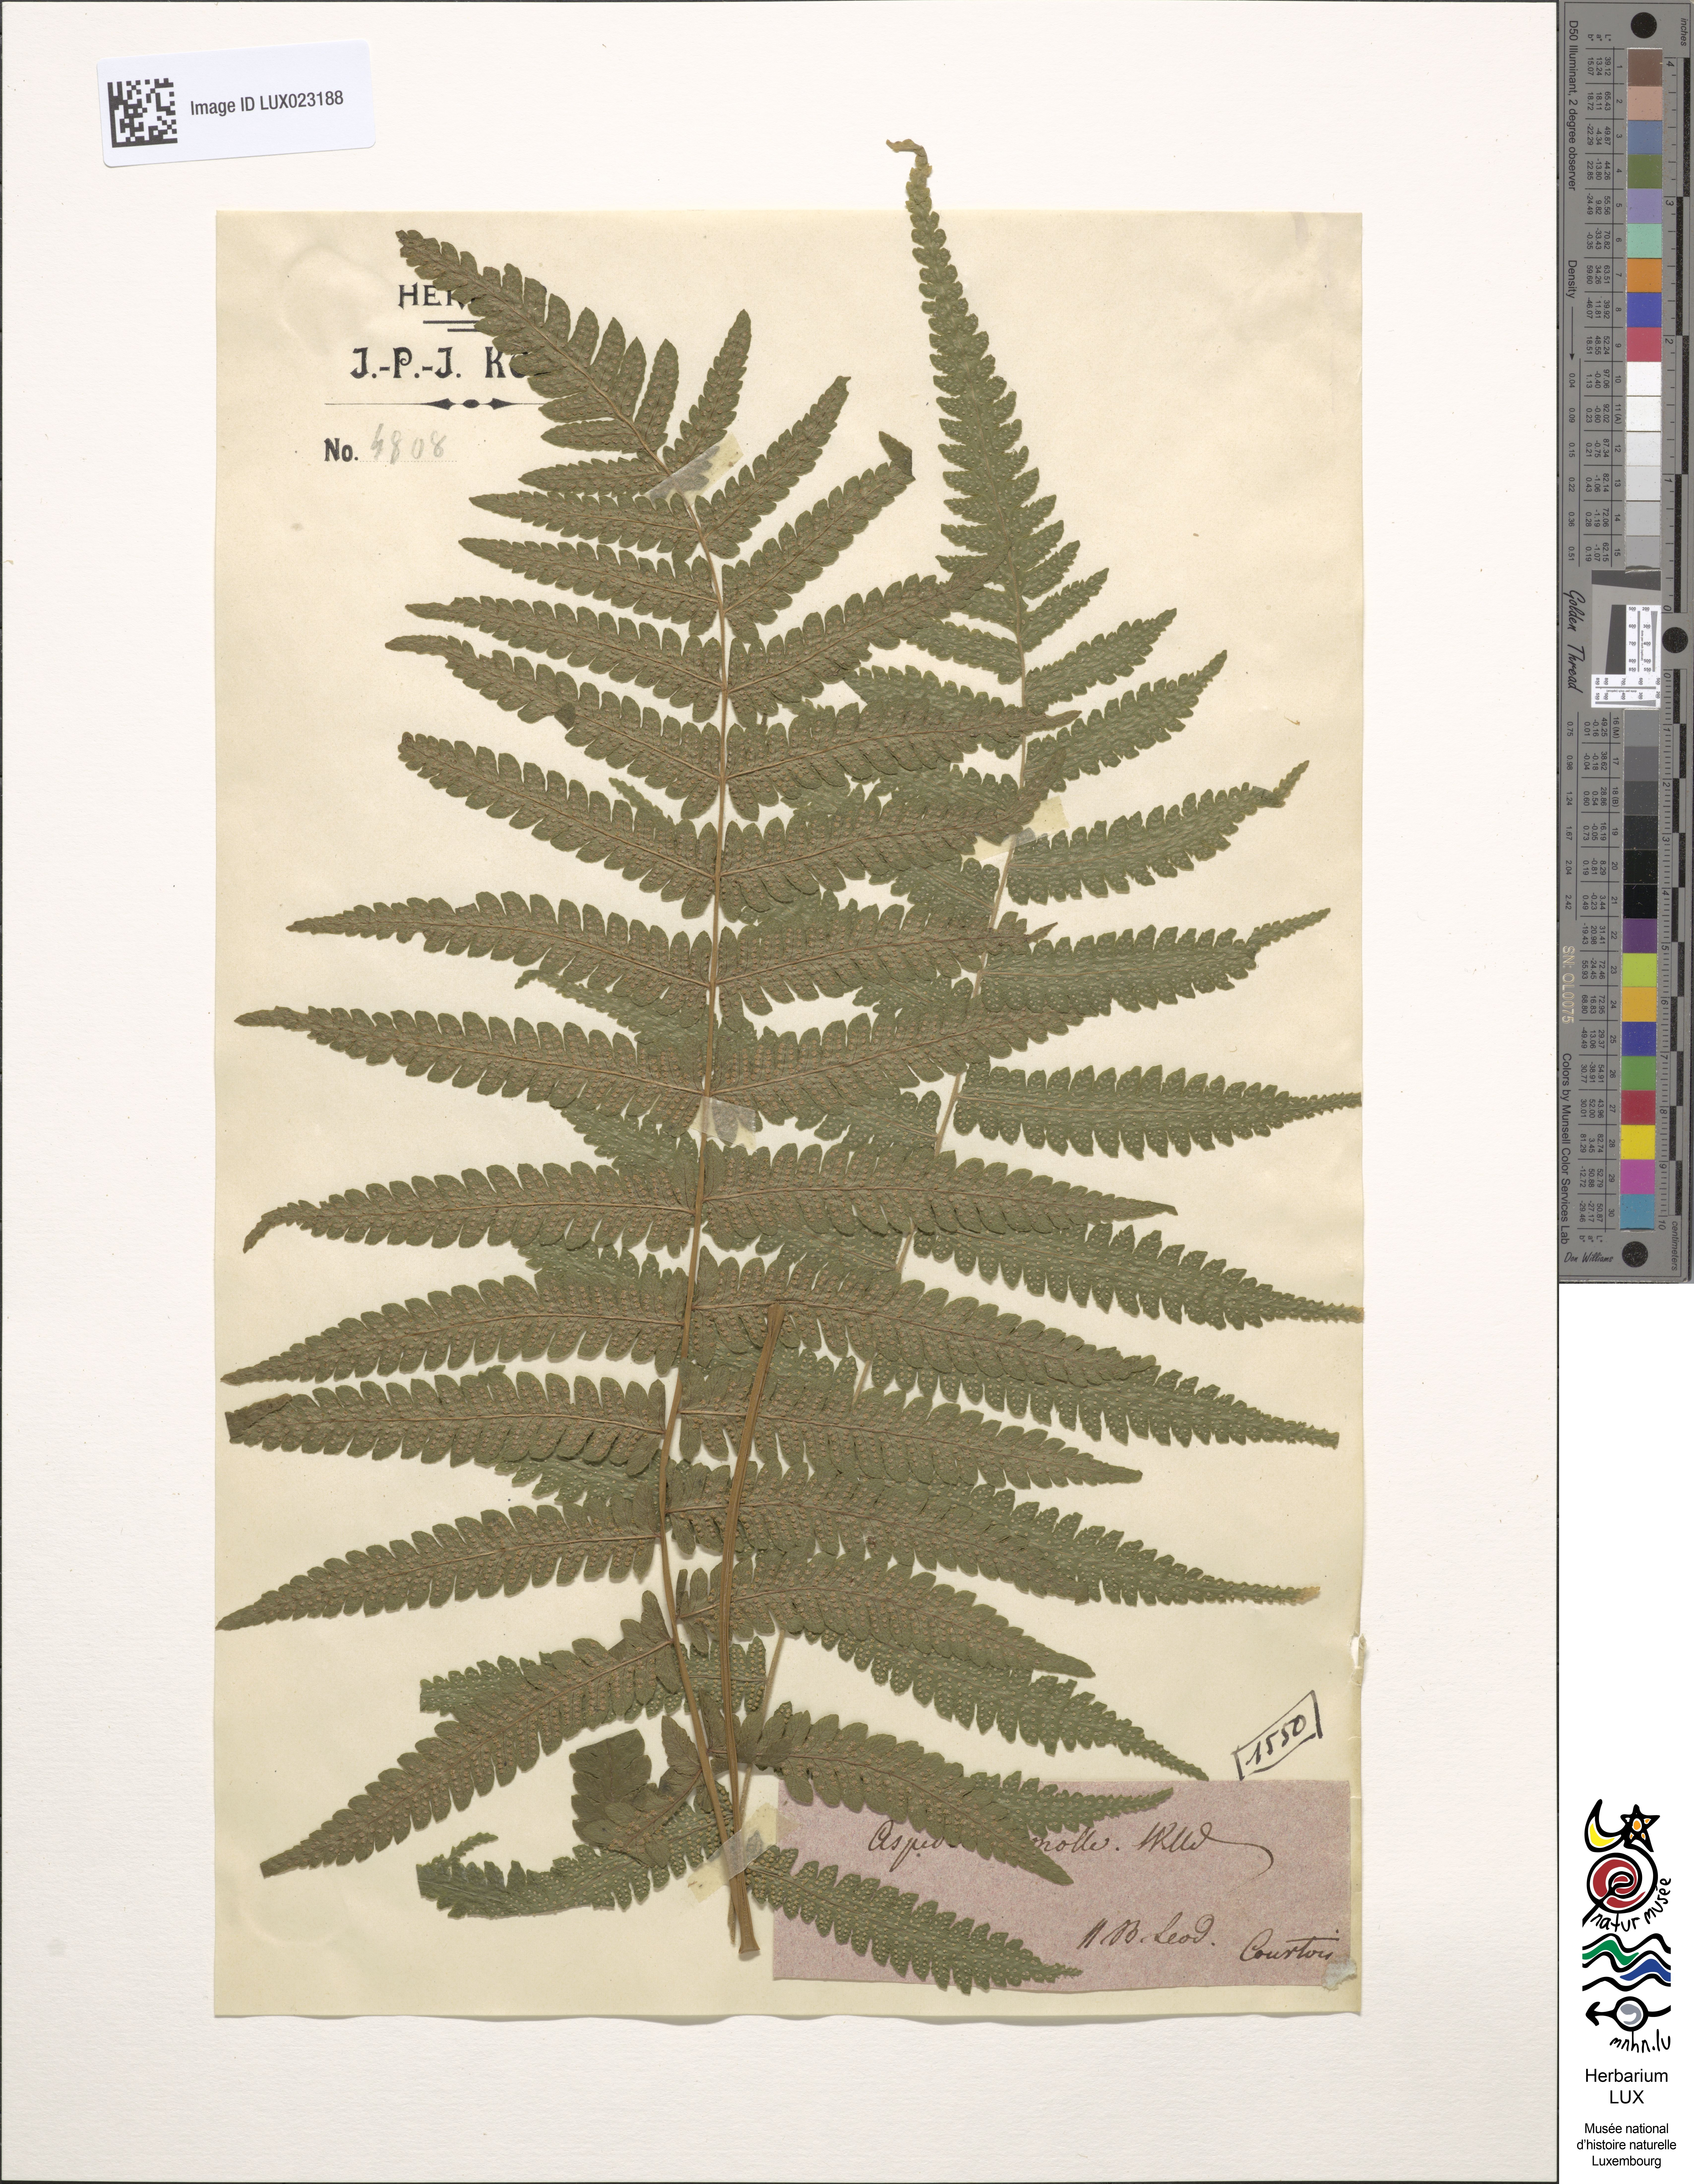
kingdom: Plantae
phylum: Tracheophyta
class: Polypodiopsida
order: Polypodiales
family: Thelypteridaceae
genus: Christella
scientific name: Christella dentata
